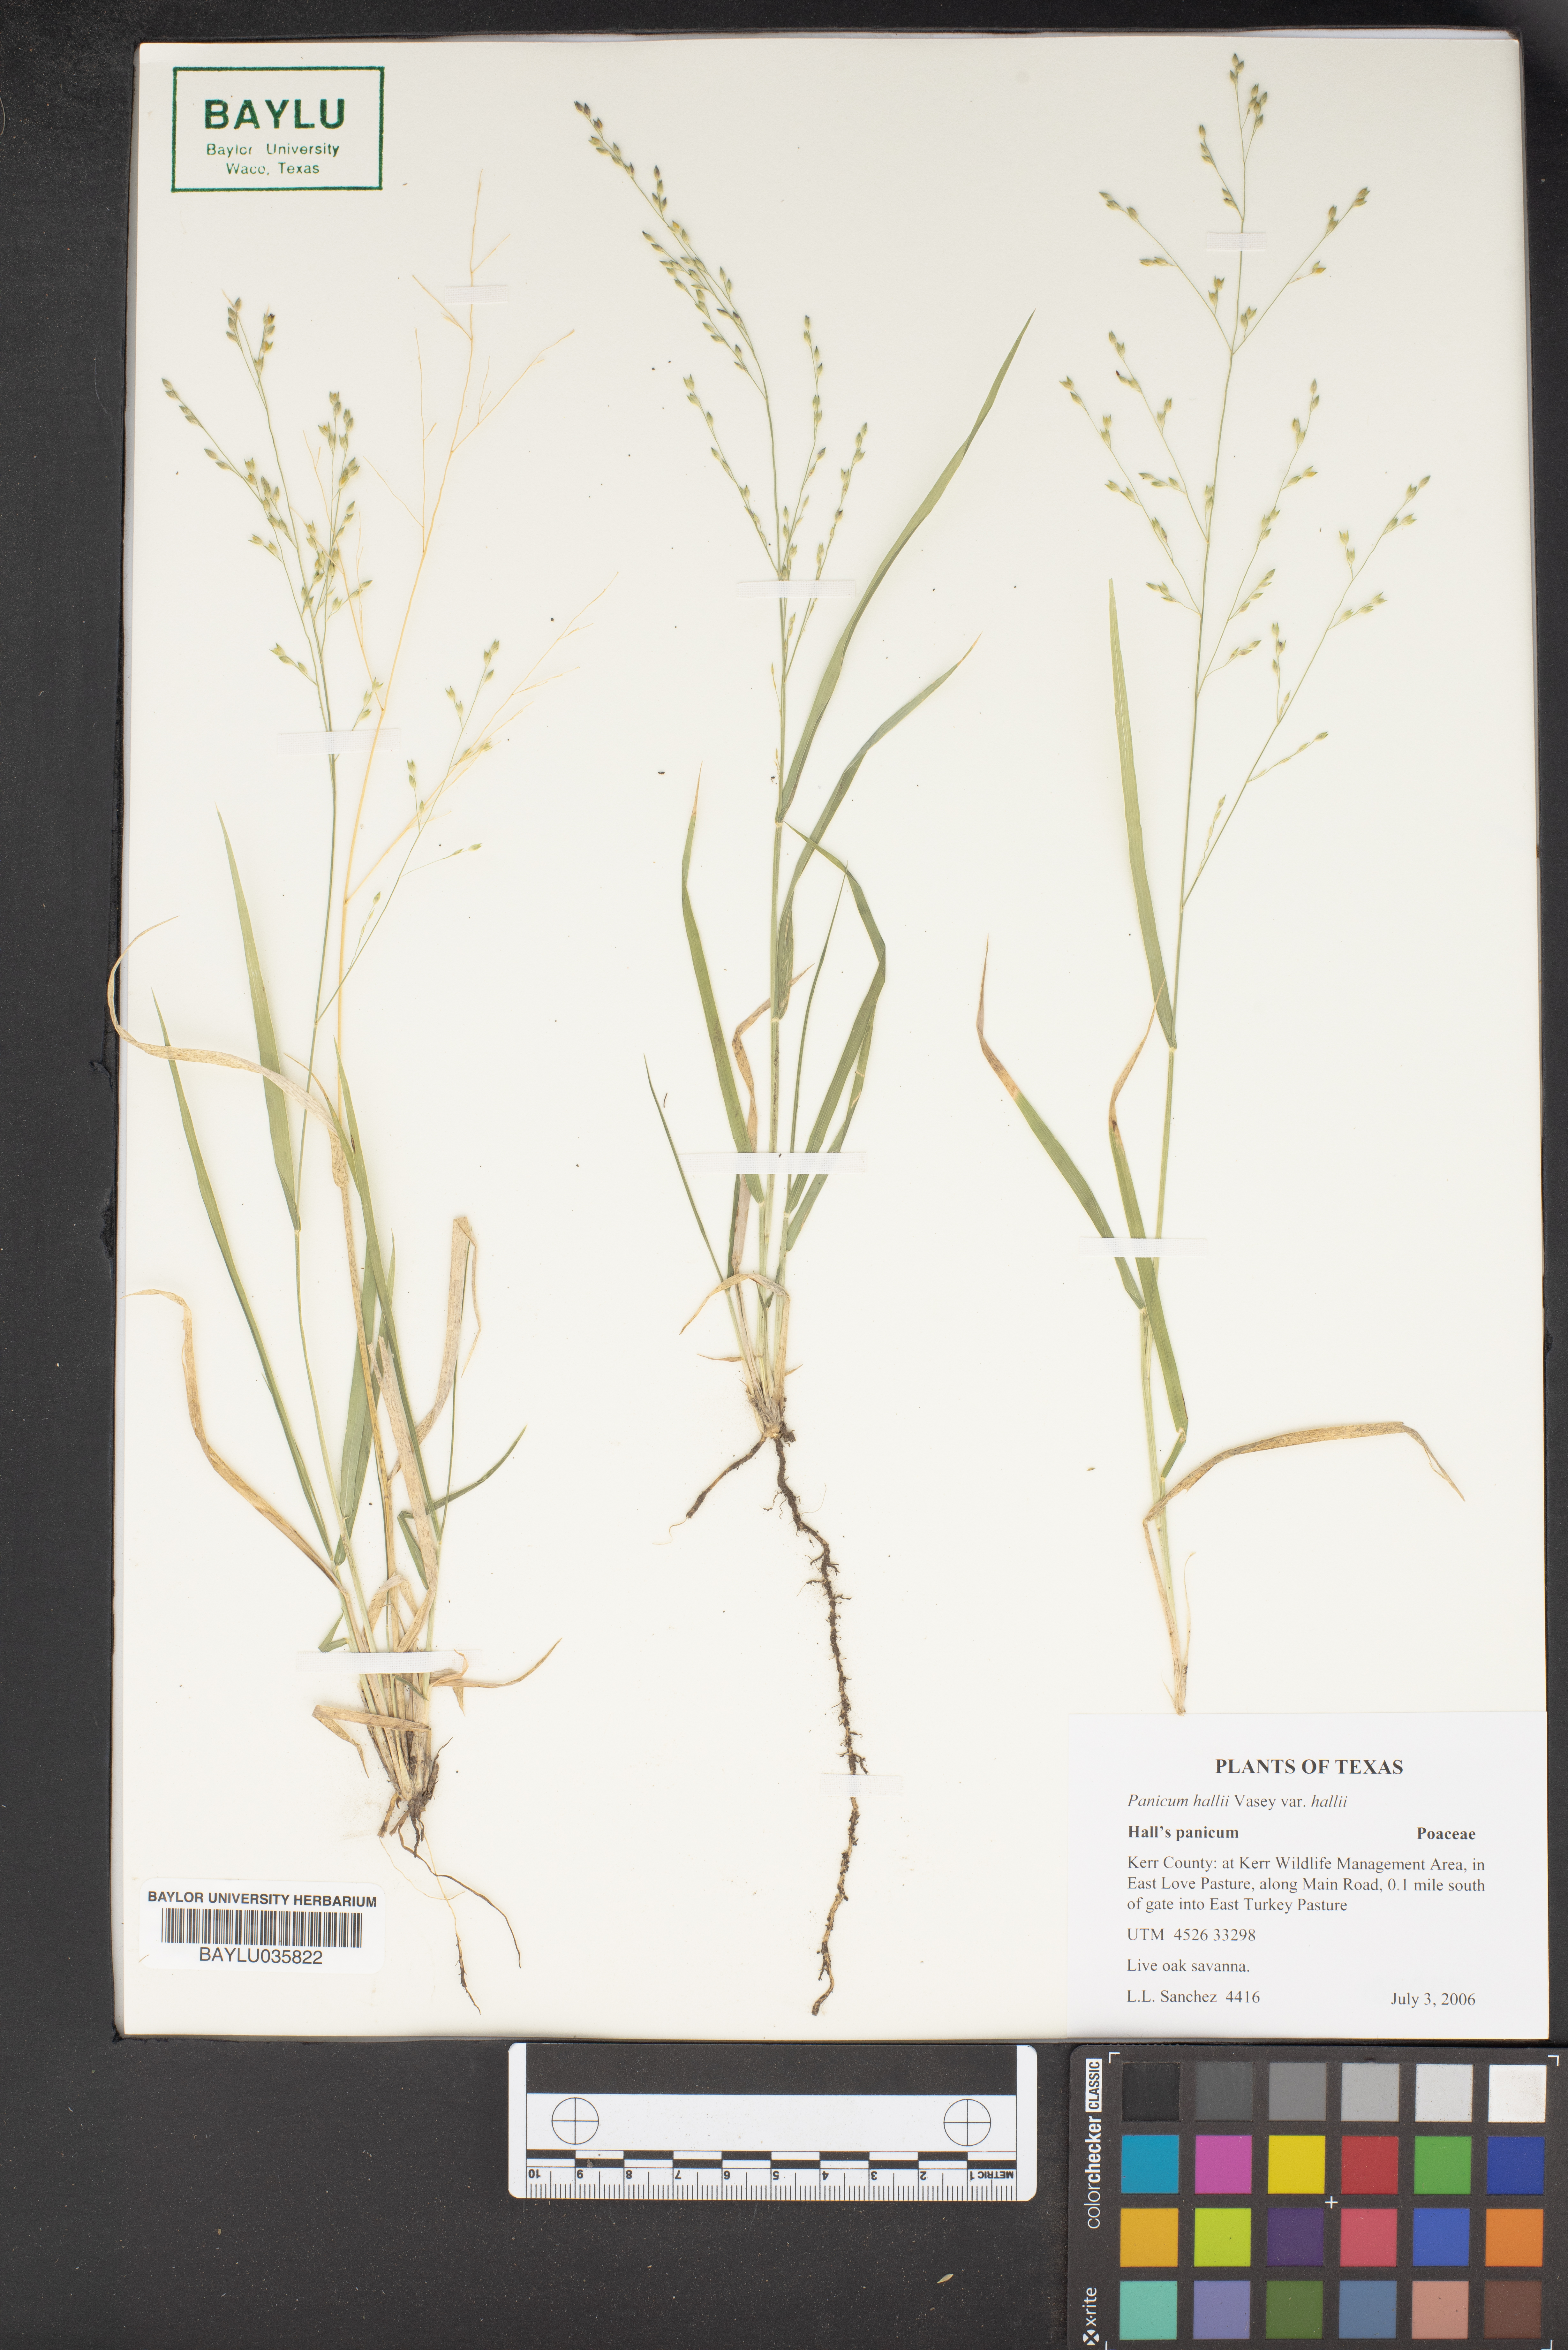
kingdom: Plantae
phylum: Tracheophyta
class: Liliopsida
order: Poales
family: Poaceae
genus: Panicum
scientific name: Panicum hallii
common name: Hall's witchgrass
